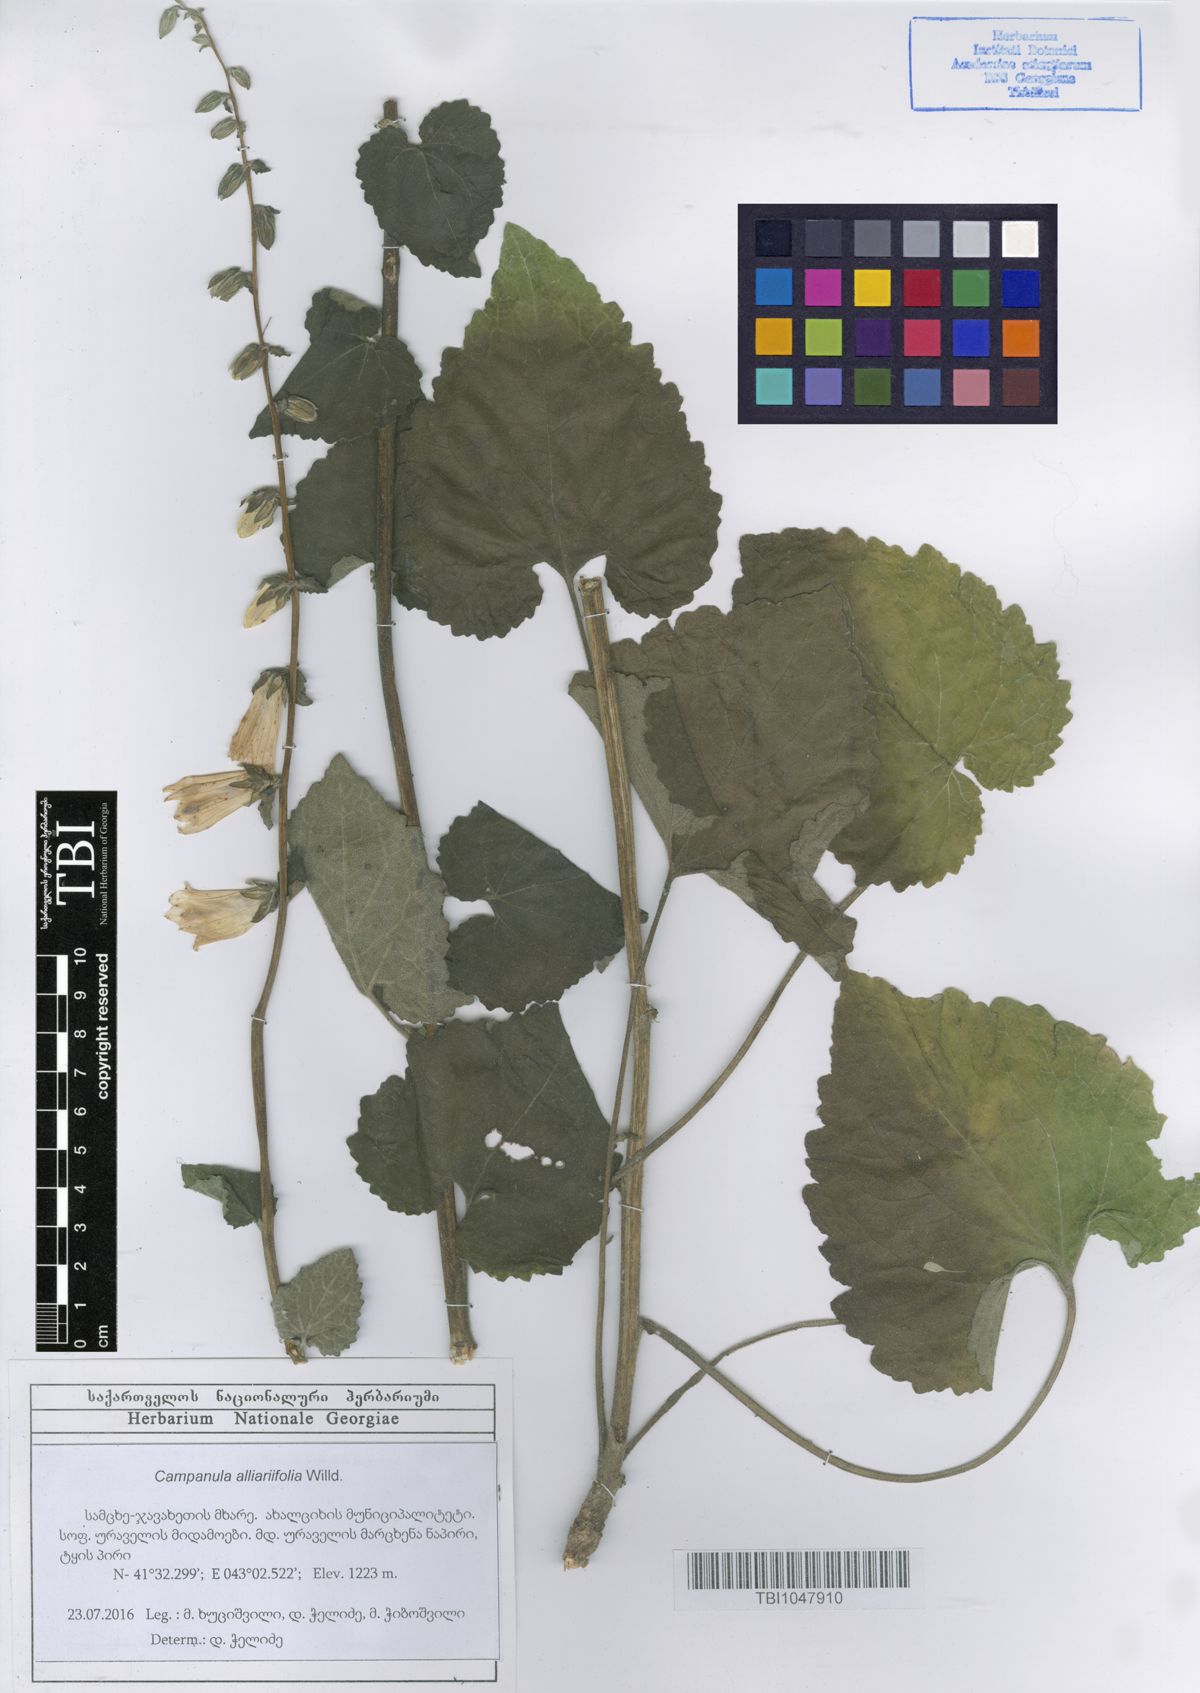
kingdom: Plantae
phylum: Tracheophyta
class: Magnoliopsida
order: Asterales
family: Campanulaceae
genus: Campanula
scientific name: Campanula alliariifolia
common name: Cornish bellflower
